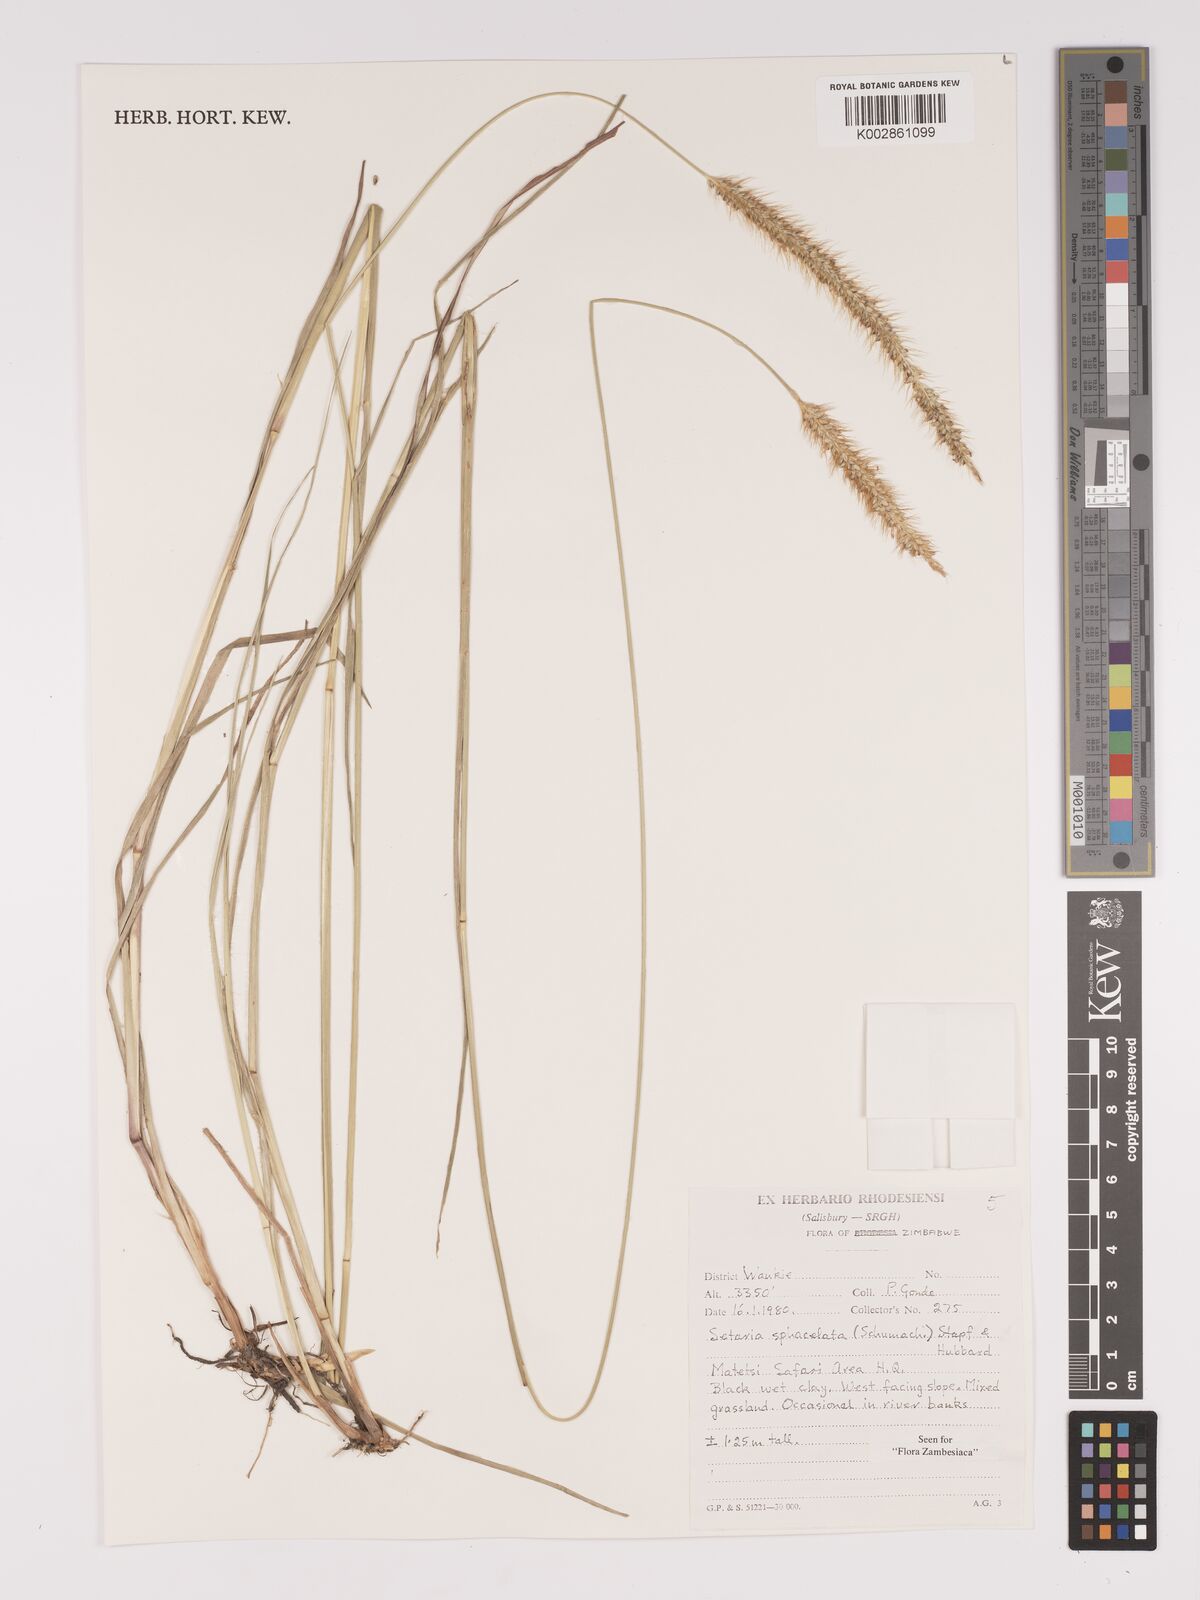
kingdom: Plantae
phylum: Tracheophyta
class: Liliopsida
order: Poales
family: Poaceae
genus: Setaria
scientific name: Setaria sphacelata
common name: African bristlegrass
